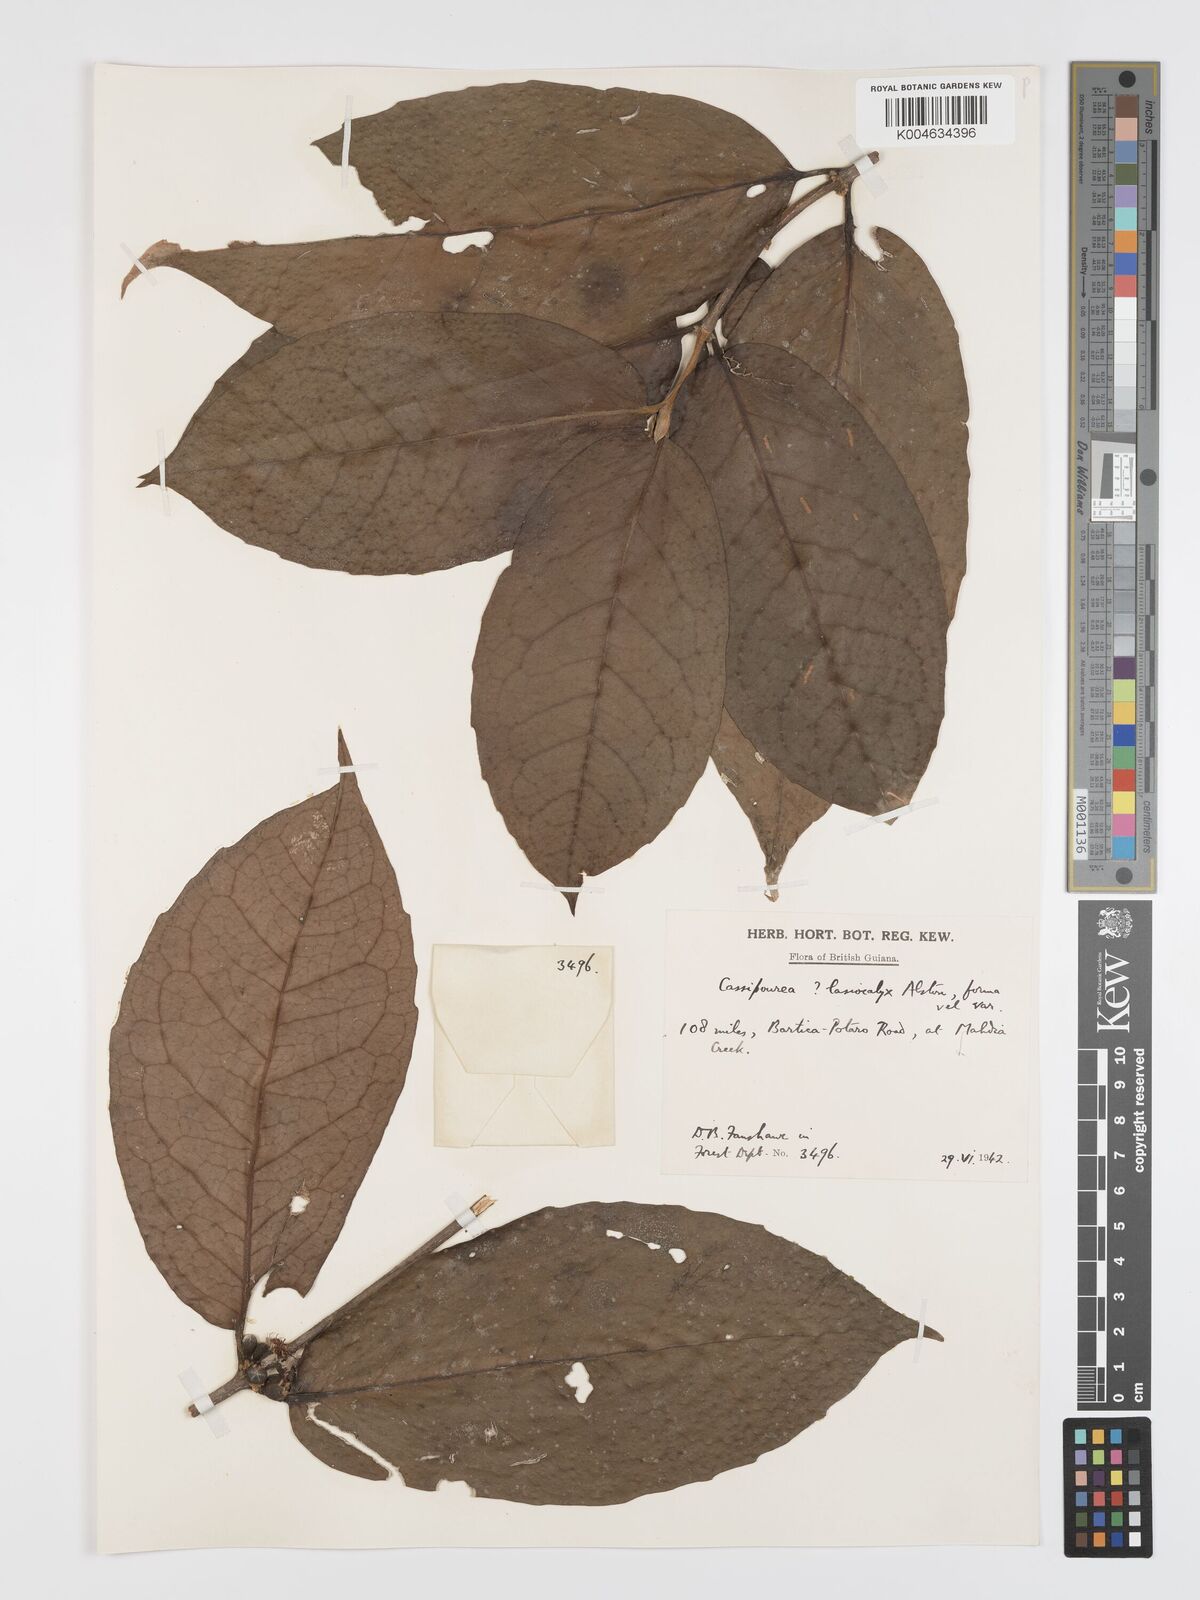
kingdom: Plantae
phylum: Tracheophyta
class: Magnoliopsida
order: Malpighiales
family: Rhizophoraceae
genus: Cassipourea
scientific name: Cassipourea lasiocalyx
